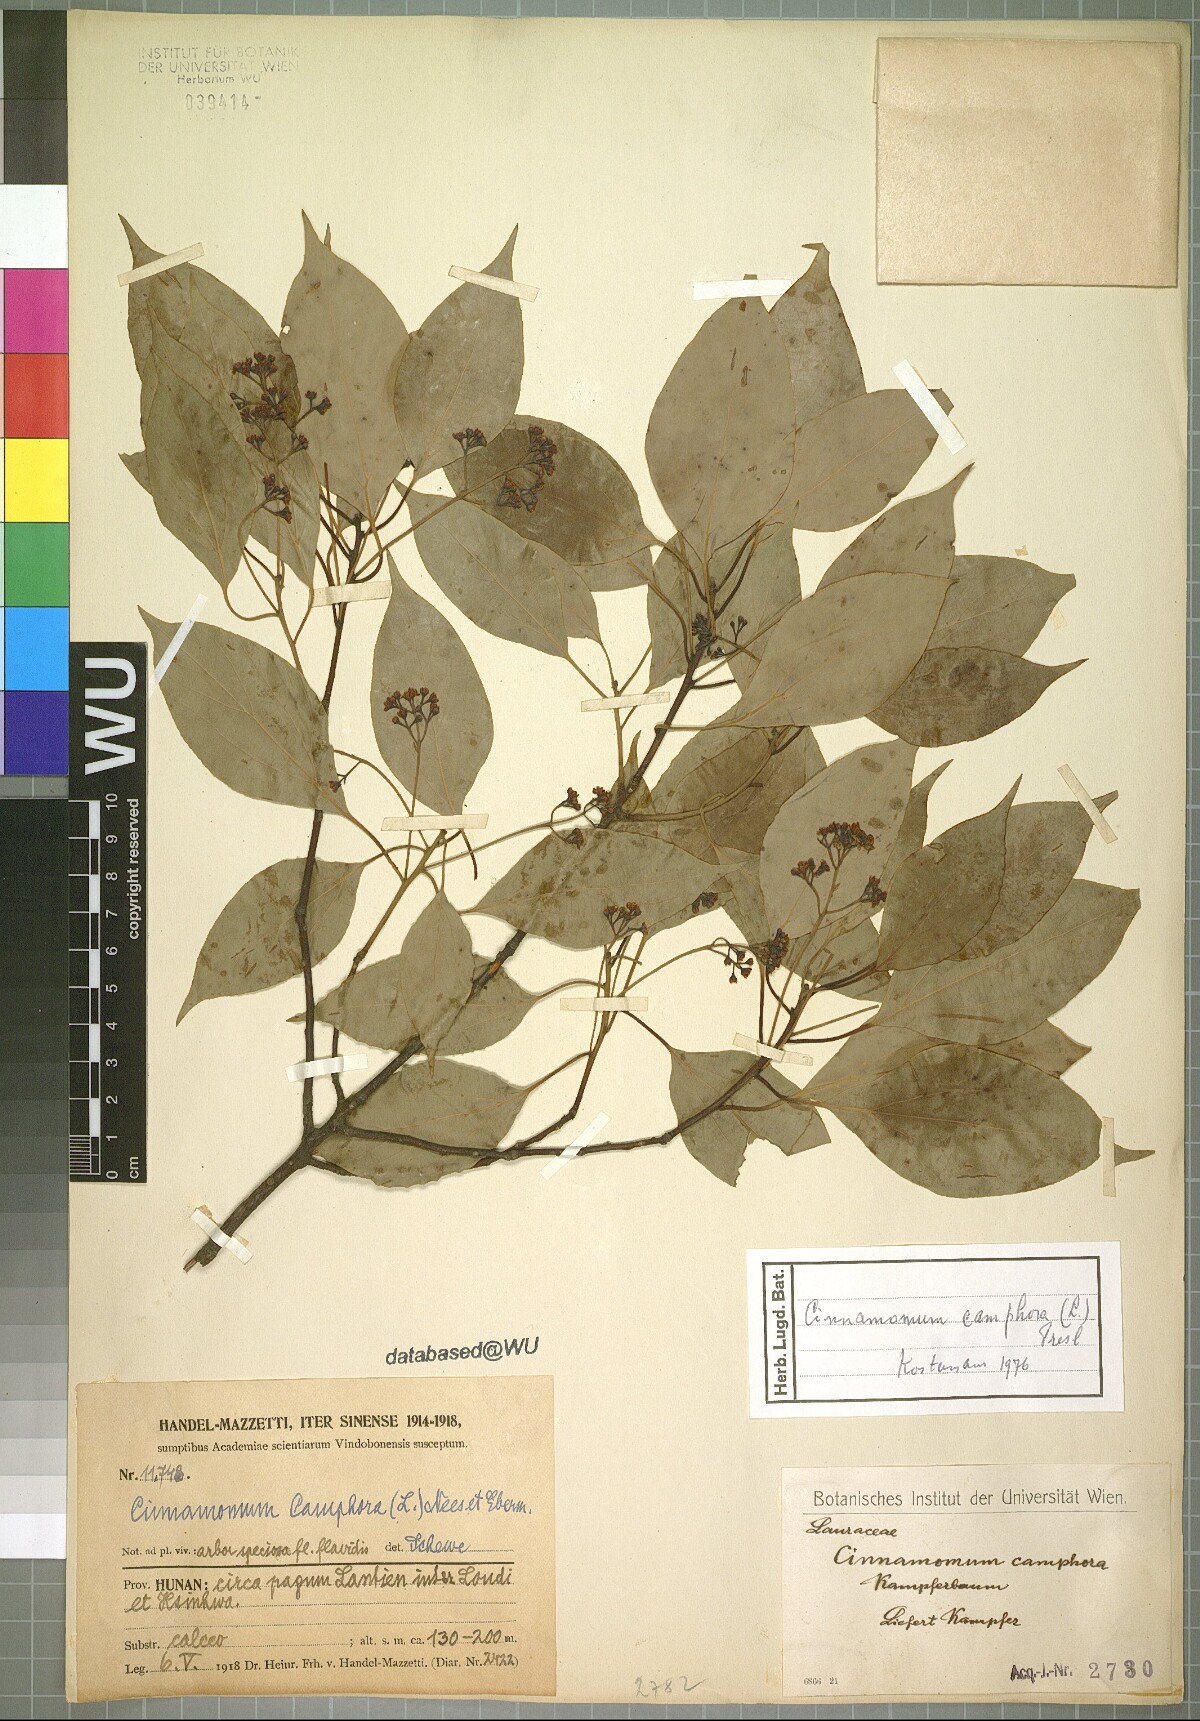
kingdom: Plantae
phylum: Tracheophyta
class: Magnoliopsida
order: Laurales
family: Lauraceae
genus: Cinnamomum
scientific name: Cinnamomum camphora
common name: Camphortree
